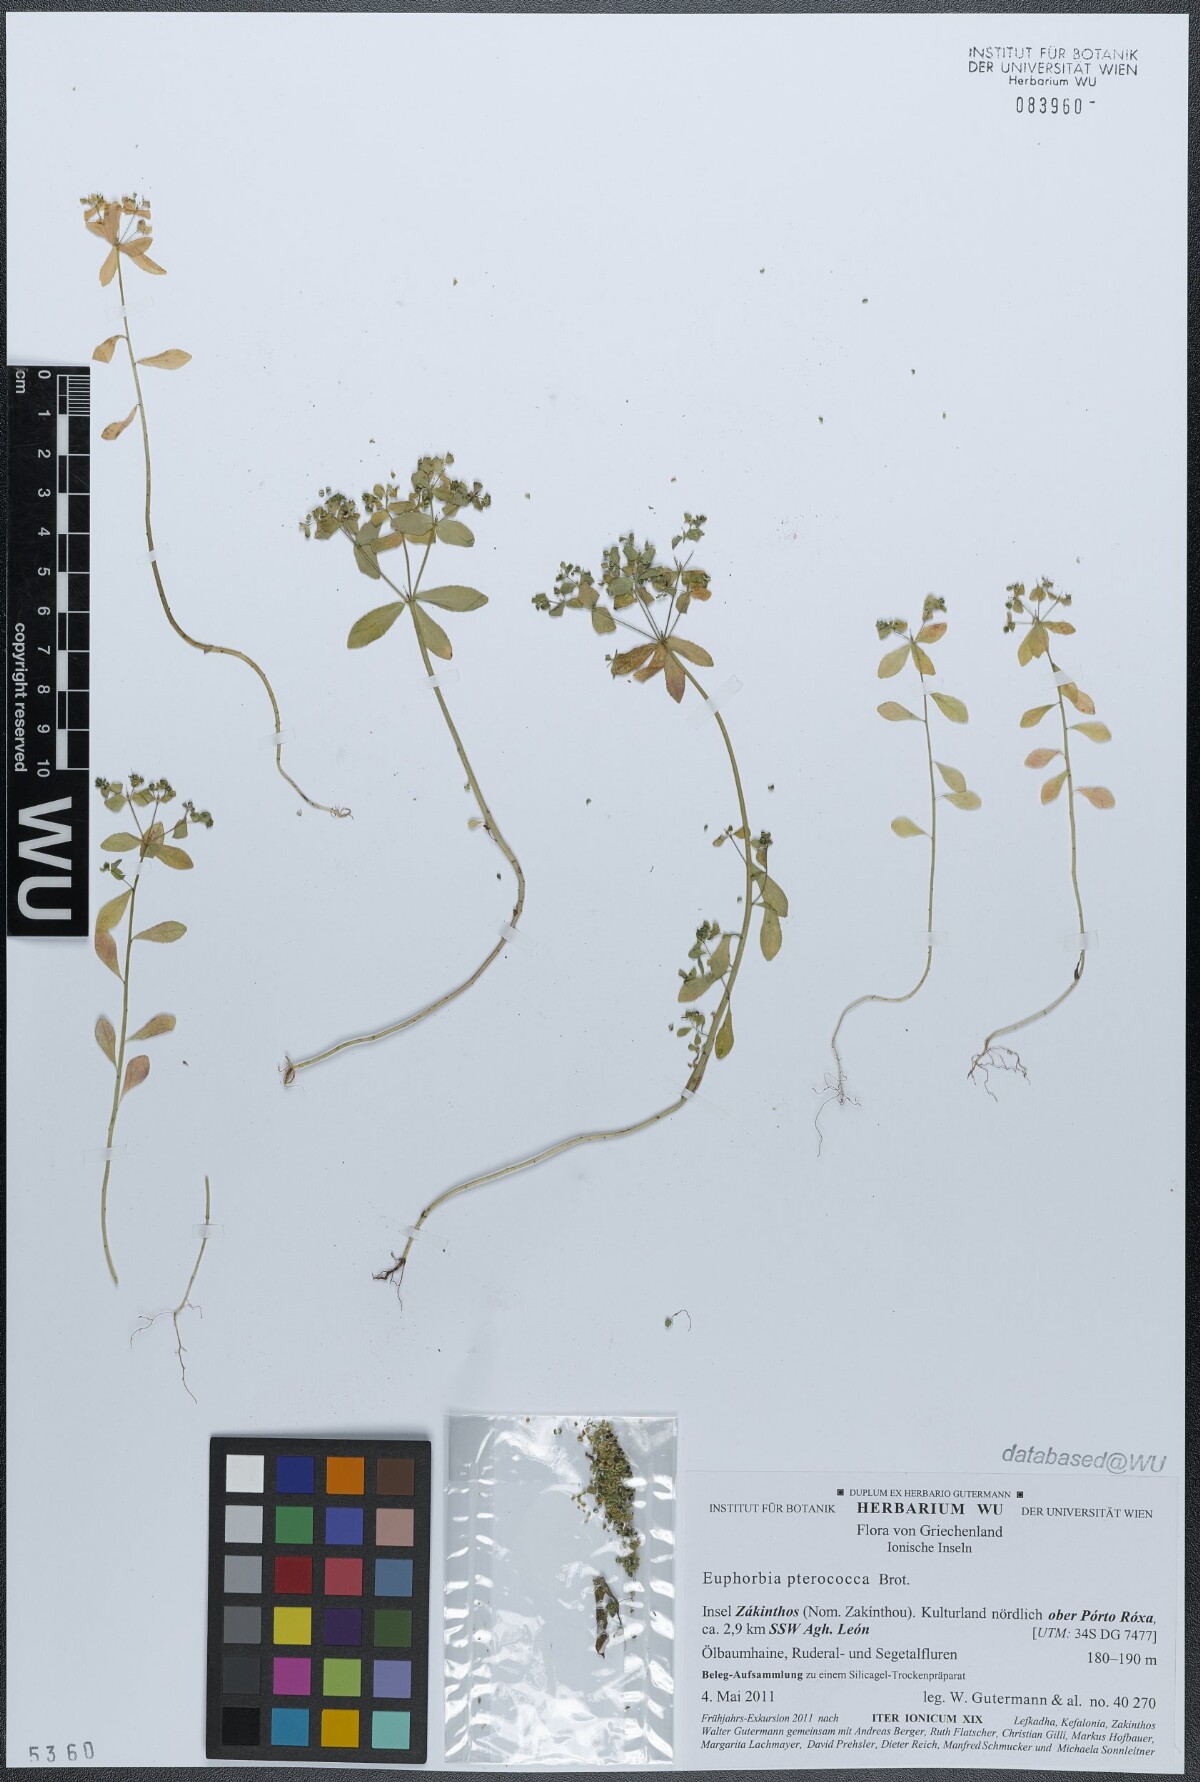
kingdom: Plantae
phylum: Tracheophyta
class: Magnoliopsida
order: Malpighiales
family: Euphorbiaceae
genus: Euphorbia
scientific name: Euphorbia pterococca
